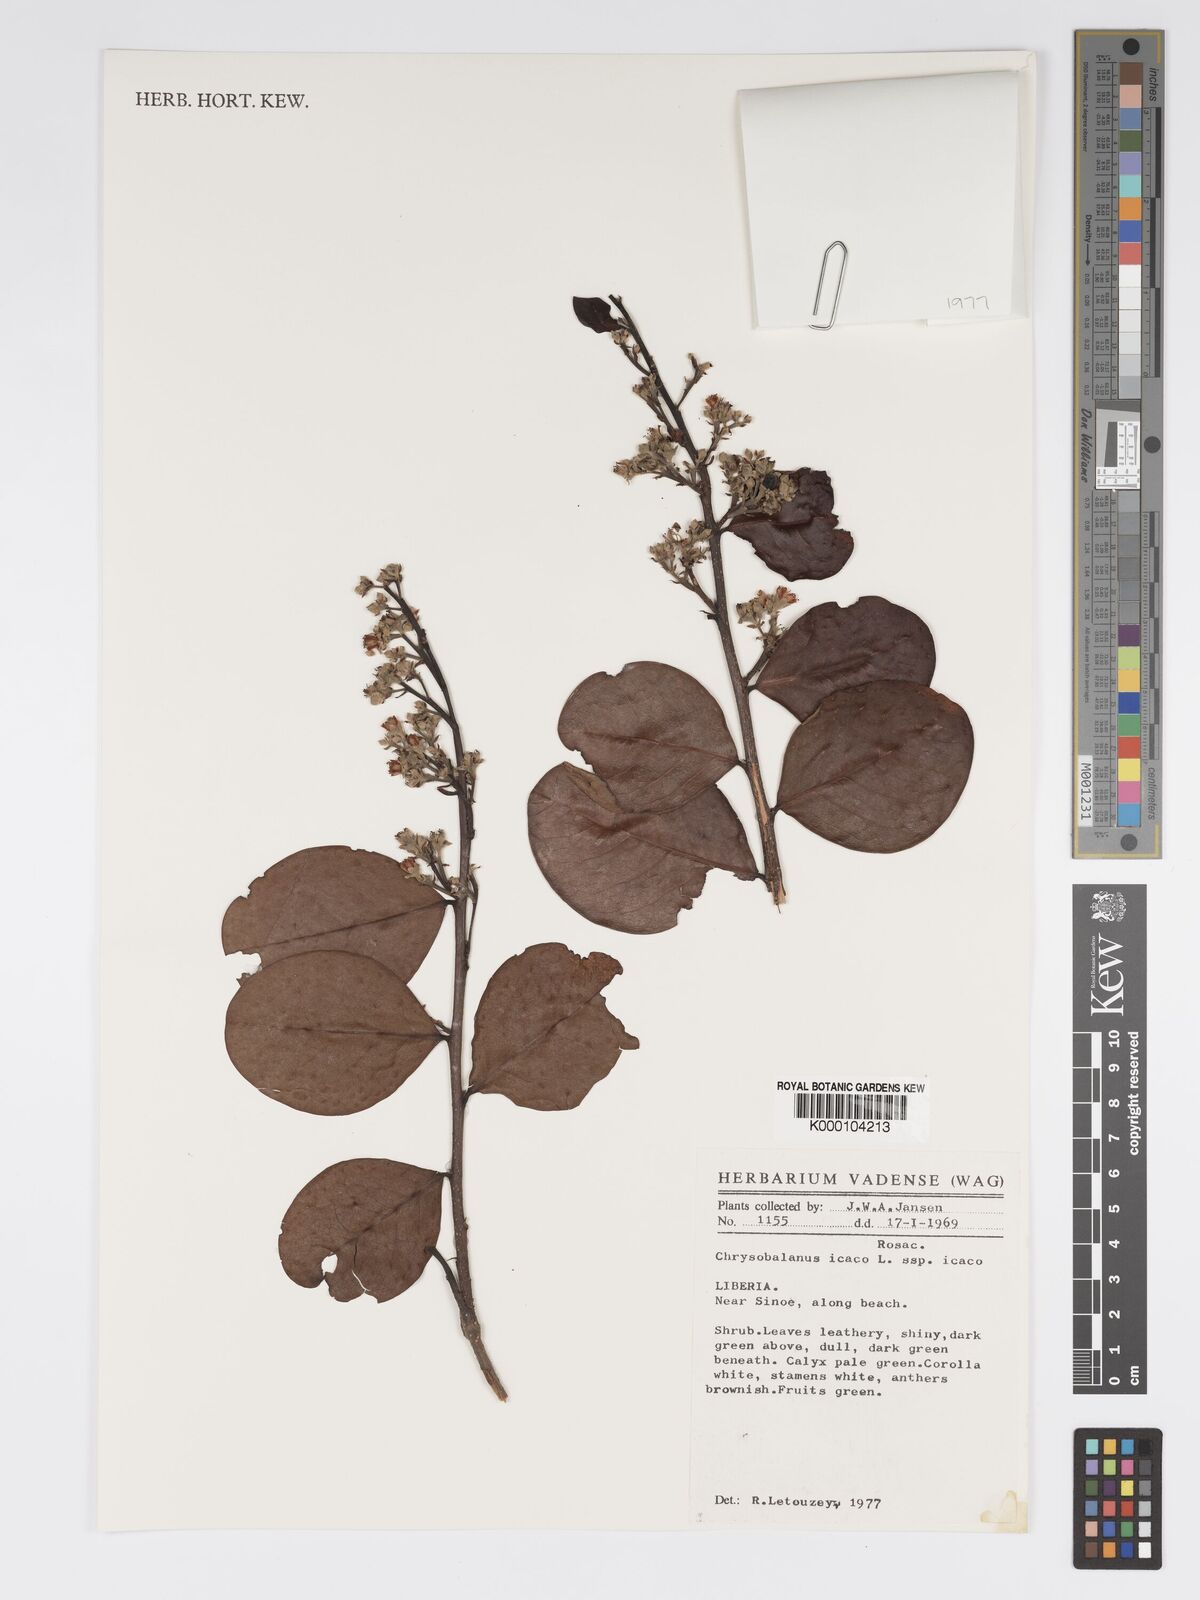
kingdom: Plantae
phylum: Tracheophyta
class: Magnoliopsida
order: Malpighiales
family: Chrysobalanaceae
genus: Chrysobalanus
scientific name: Chrysobalanus icaco
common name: Coco plum
